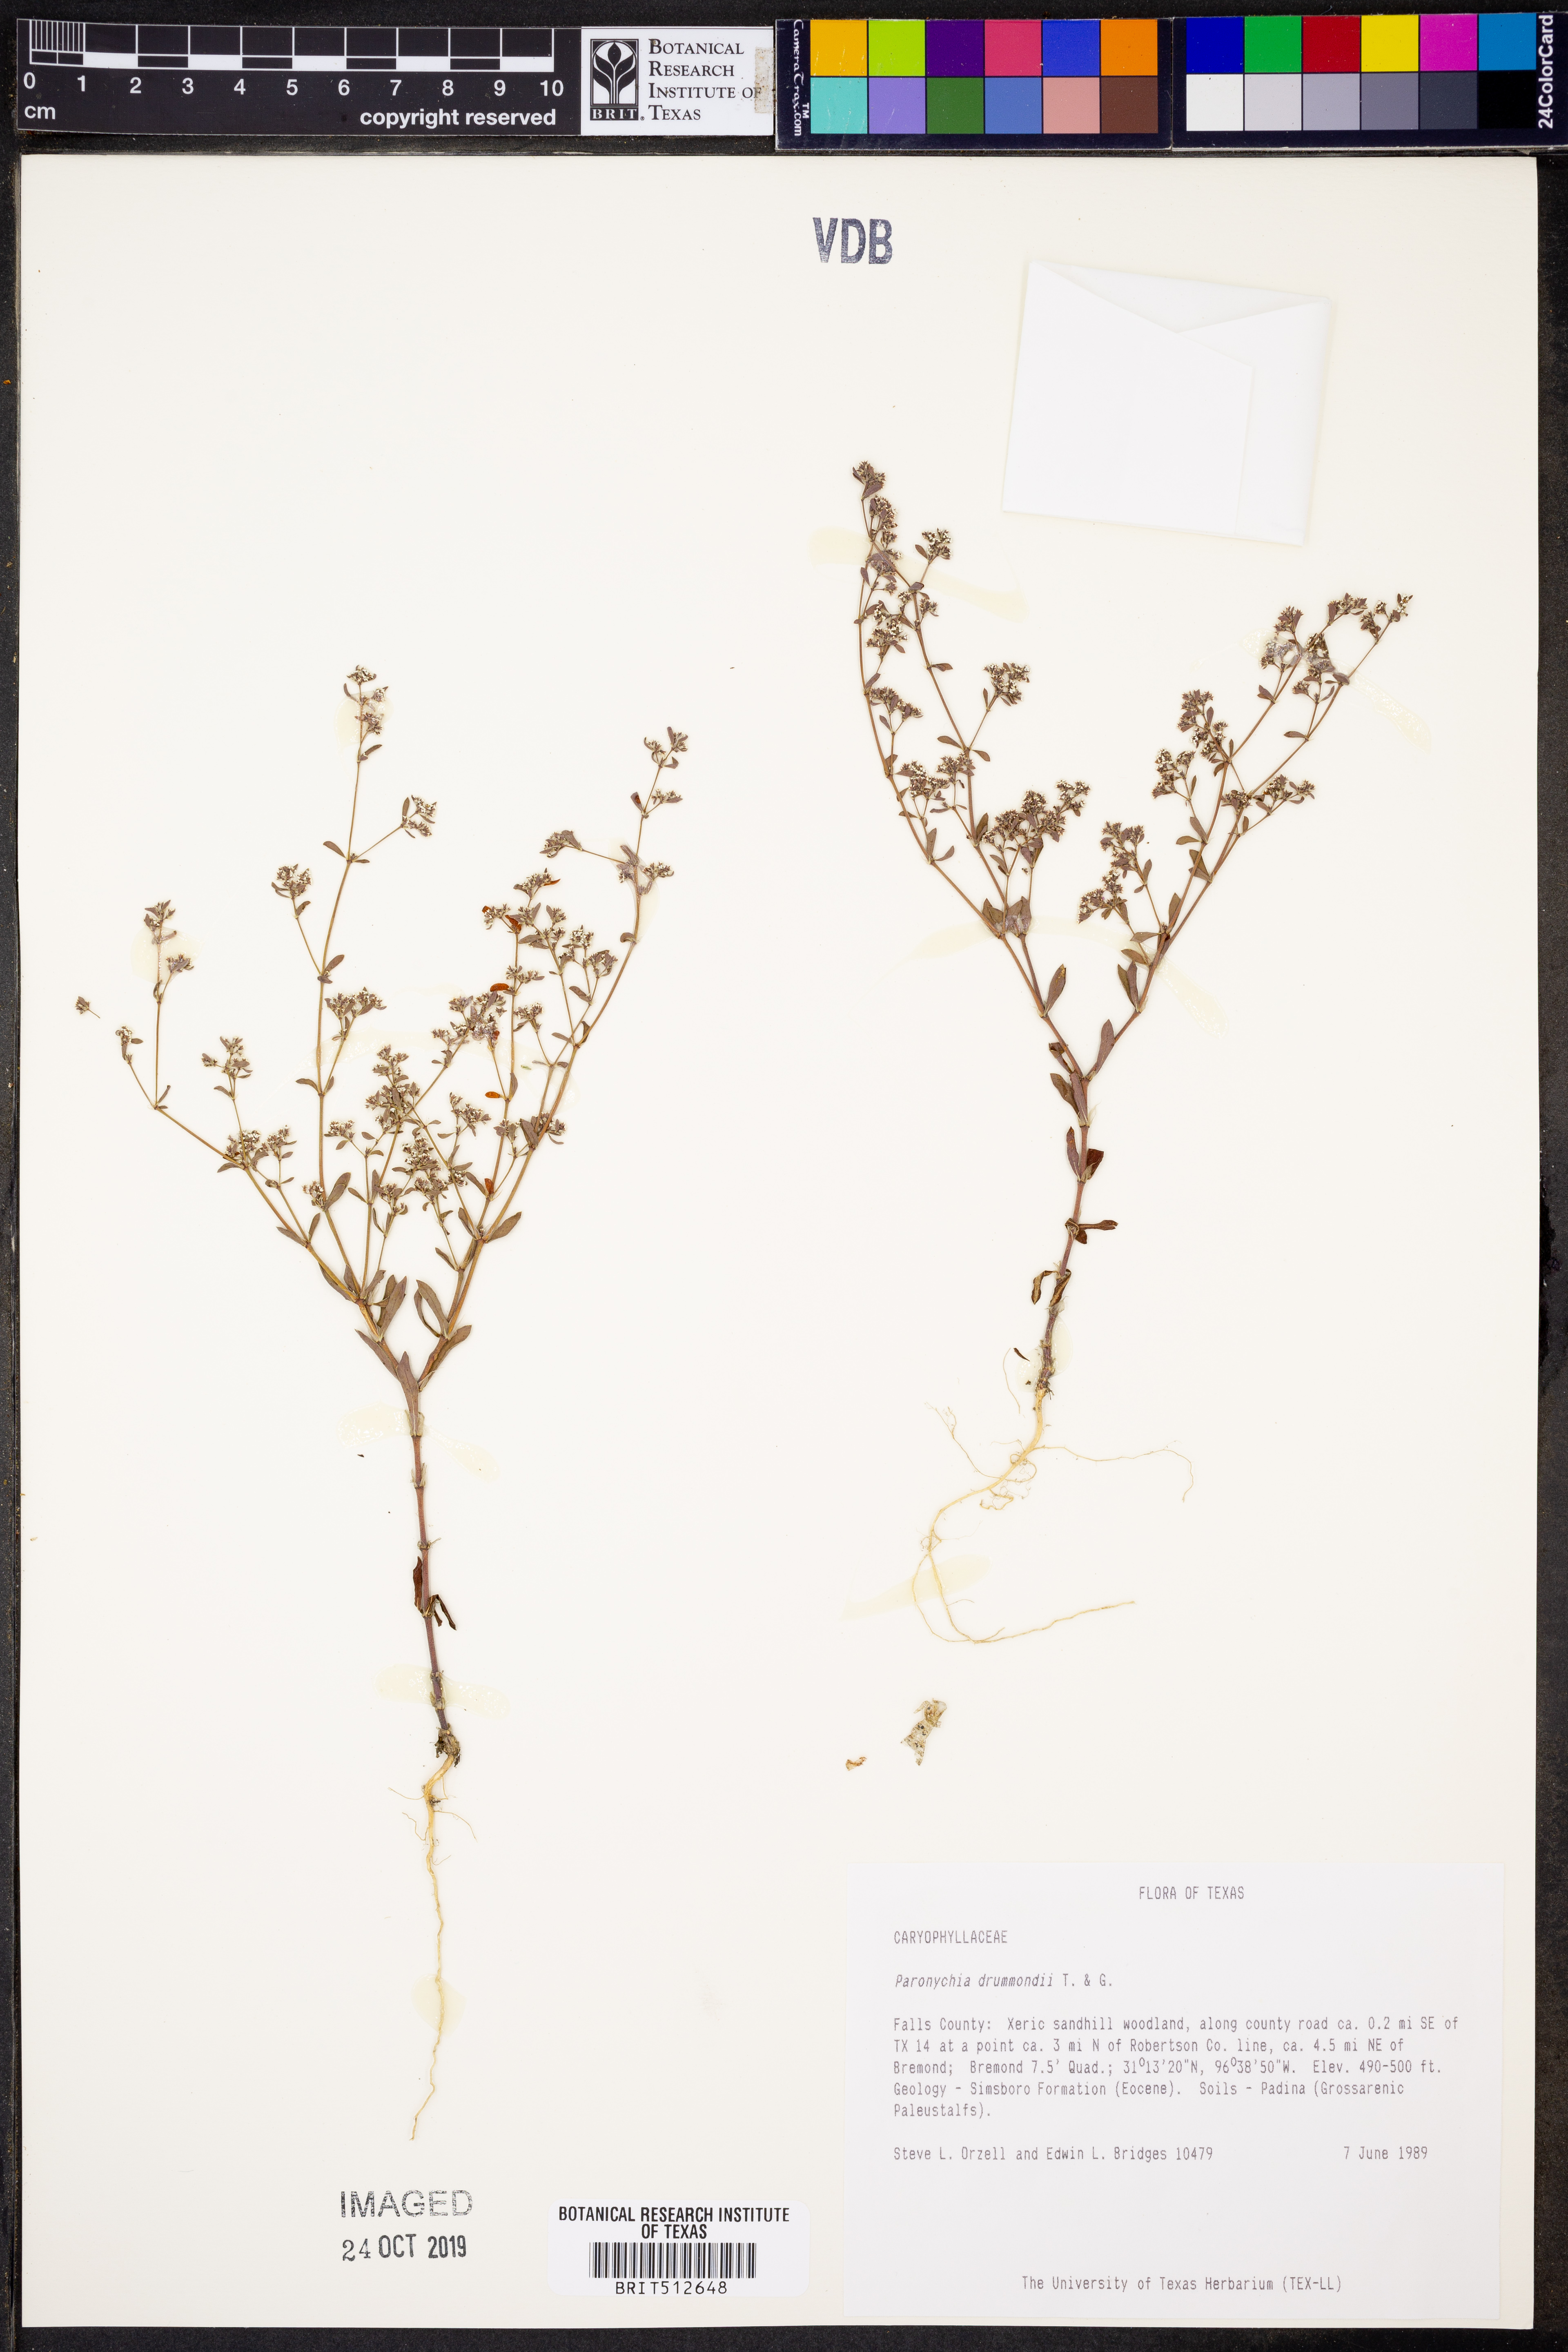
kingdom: Plantae
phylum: Tracheophyta
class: Magnoliopsida
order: Caryophyllales
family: Caryophyllaceae
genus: Paronychia
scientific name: Paronychia drummondii
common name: Drummond's nailwort
